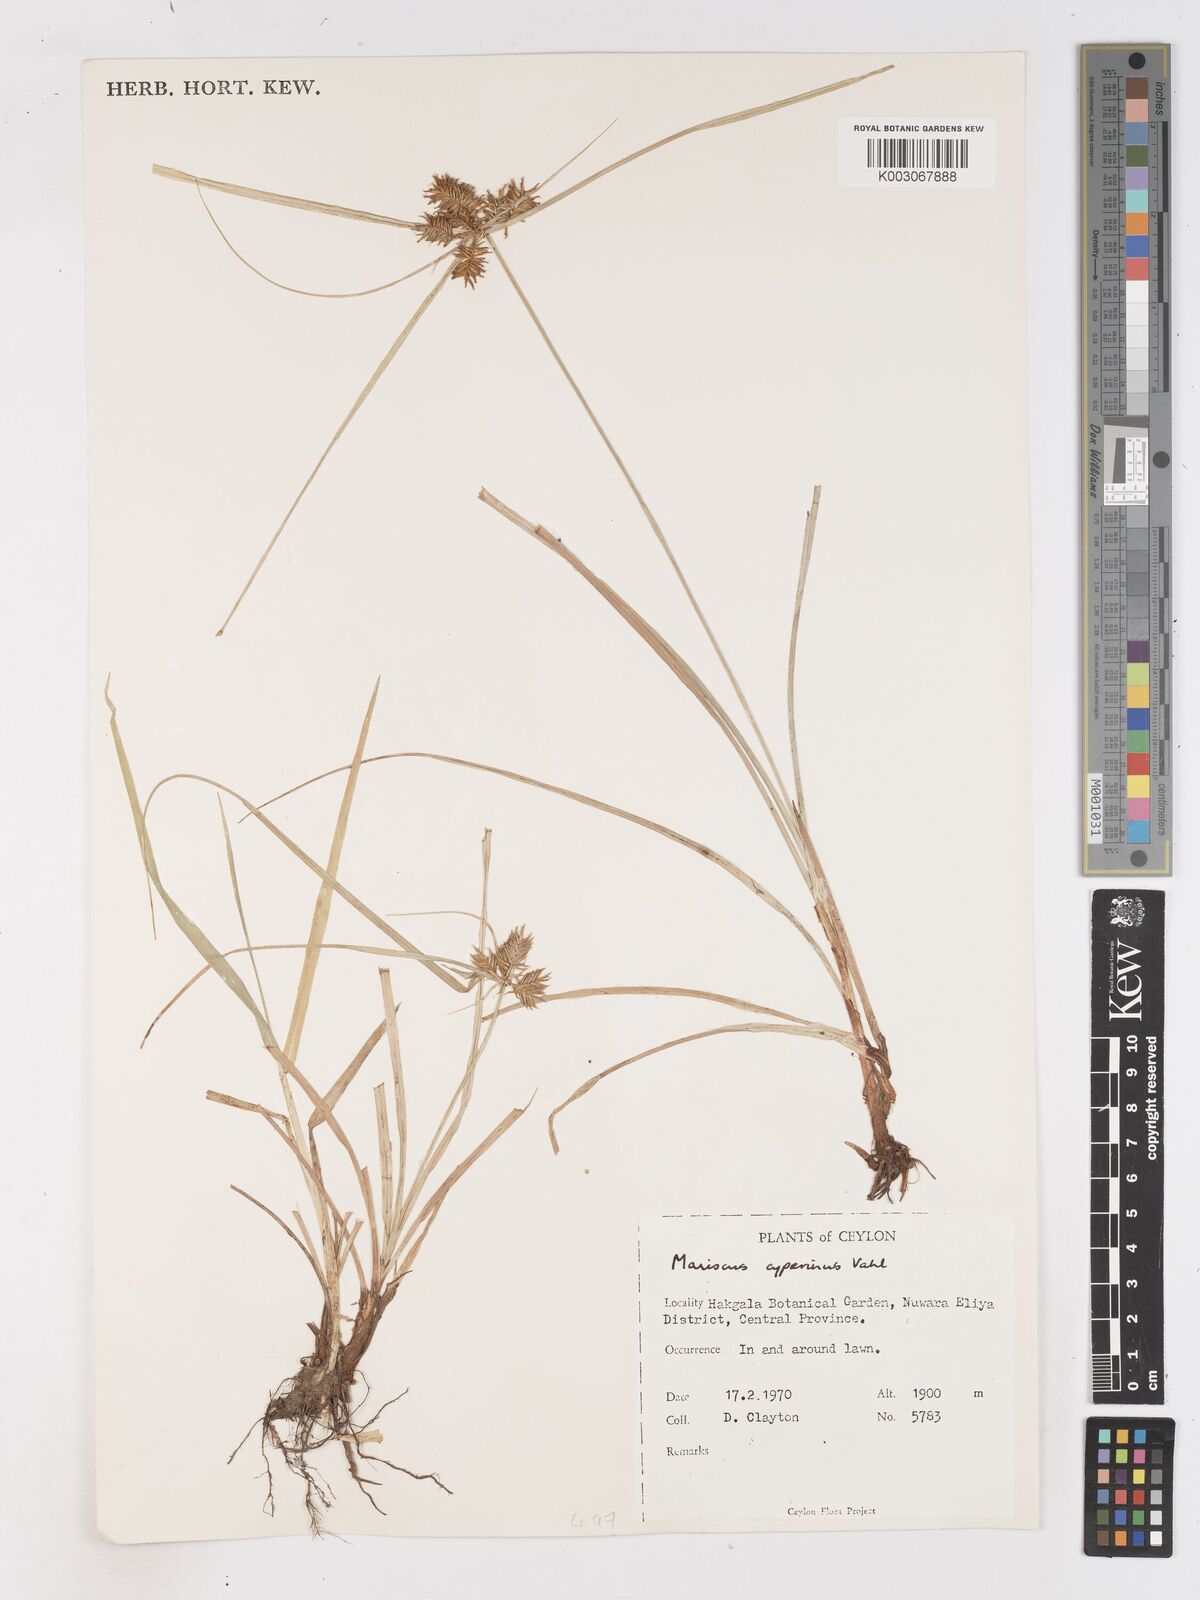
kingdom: Plantae
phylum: Tracheophyta
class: Liliopsida
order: Poales
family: Cyperaceae
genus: Cyperus
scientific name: Cyperus cyperinus
